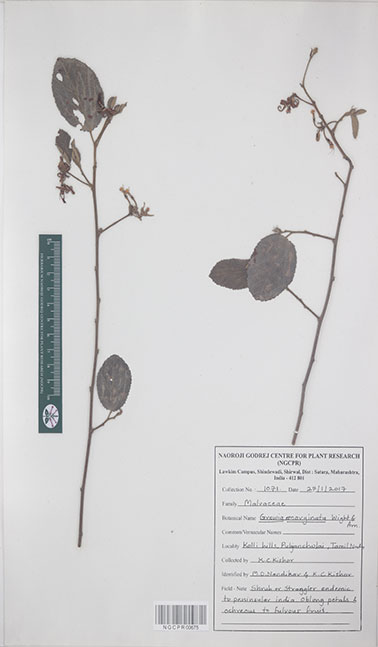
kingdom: Plantae
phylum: Tracheophyta
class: Magnoliopsida
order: Malvales
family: Malvaceae
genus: Grewia
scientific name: Grewia oppositifolia
